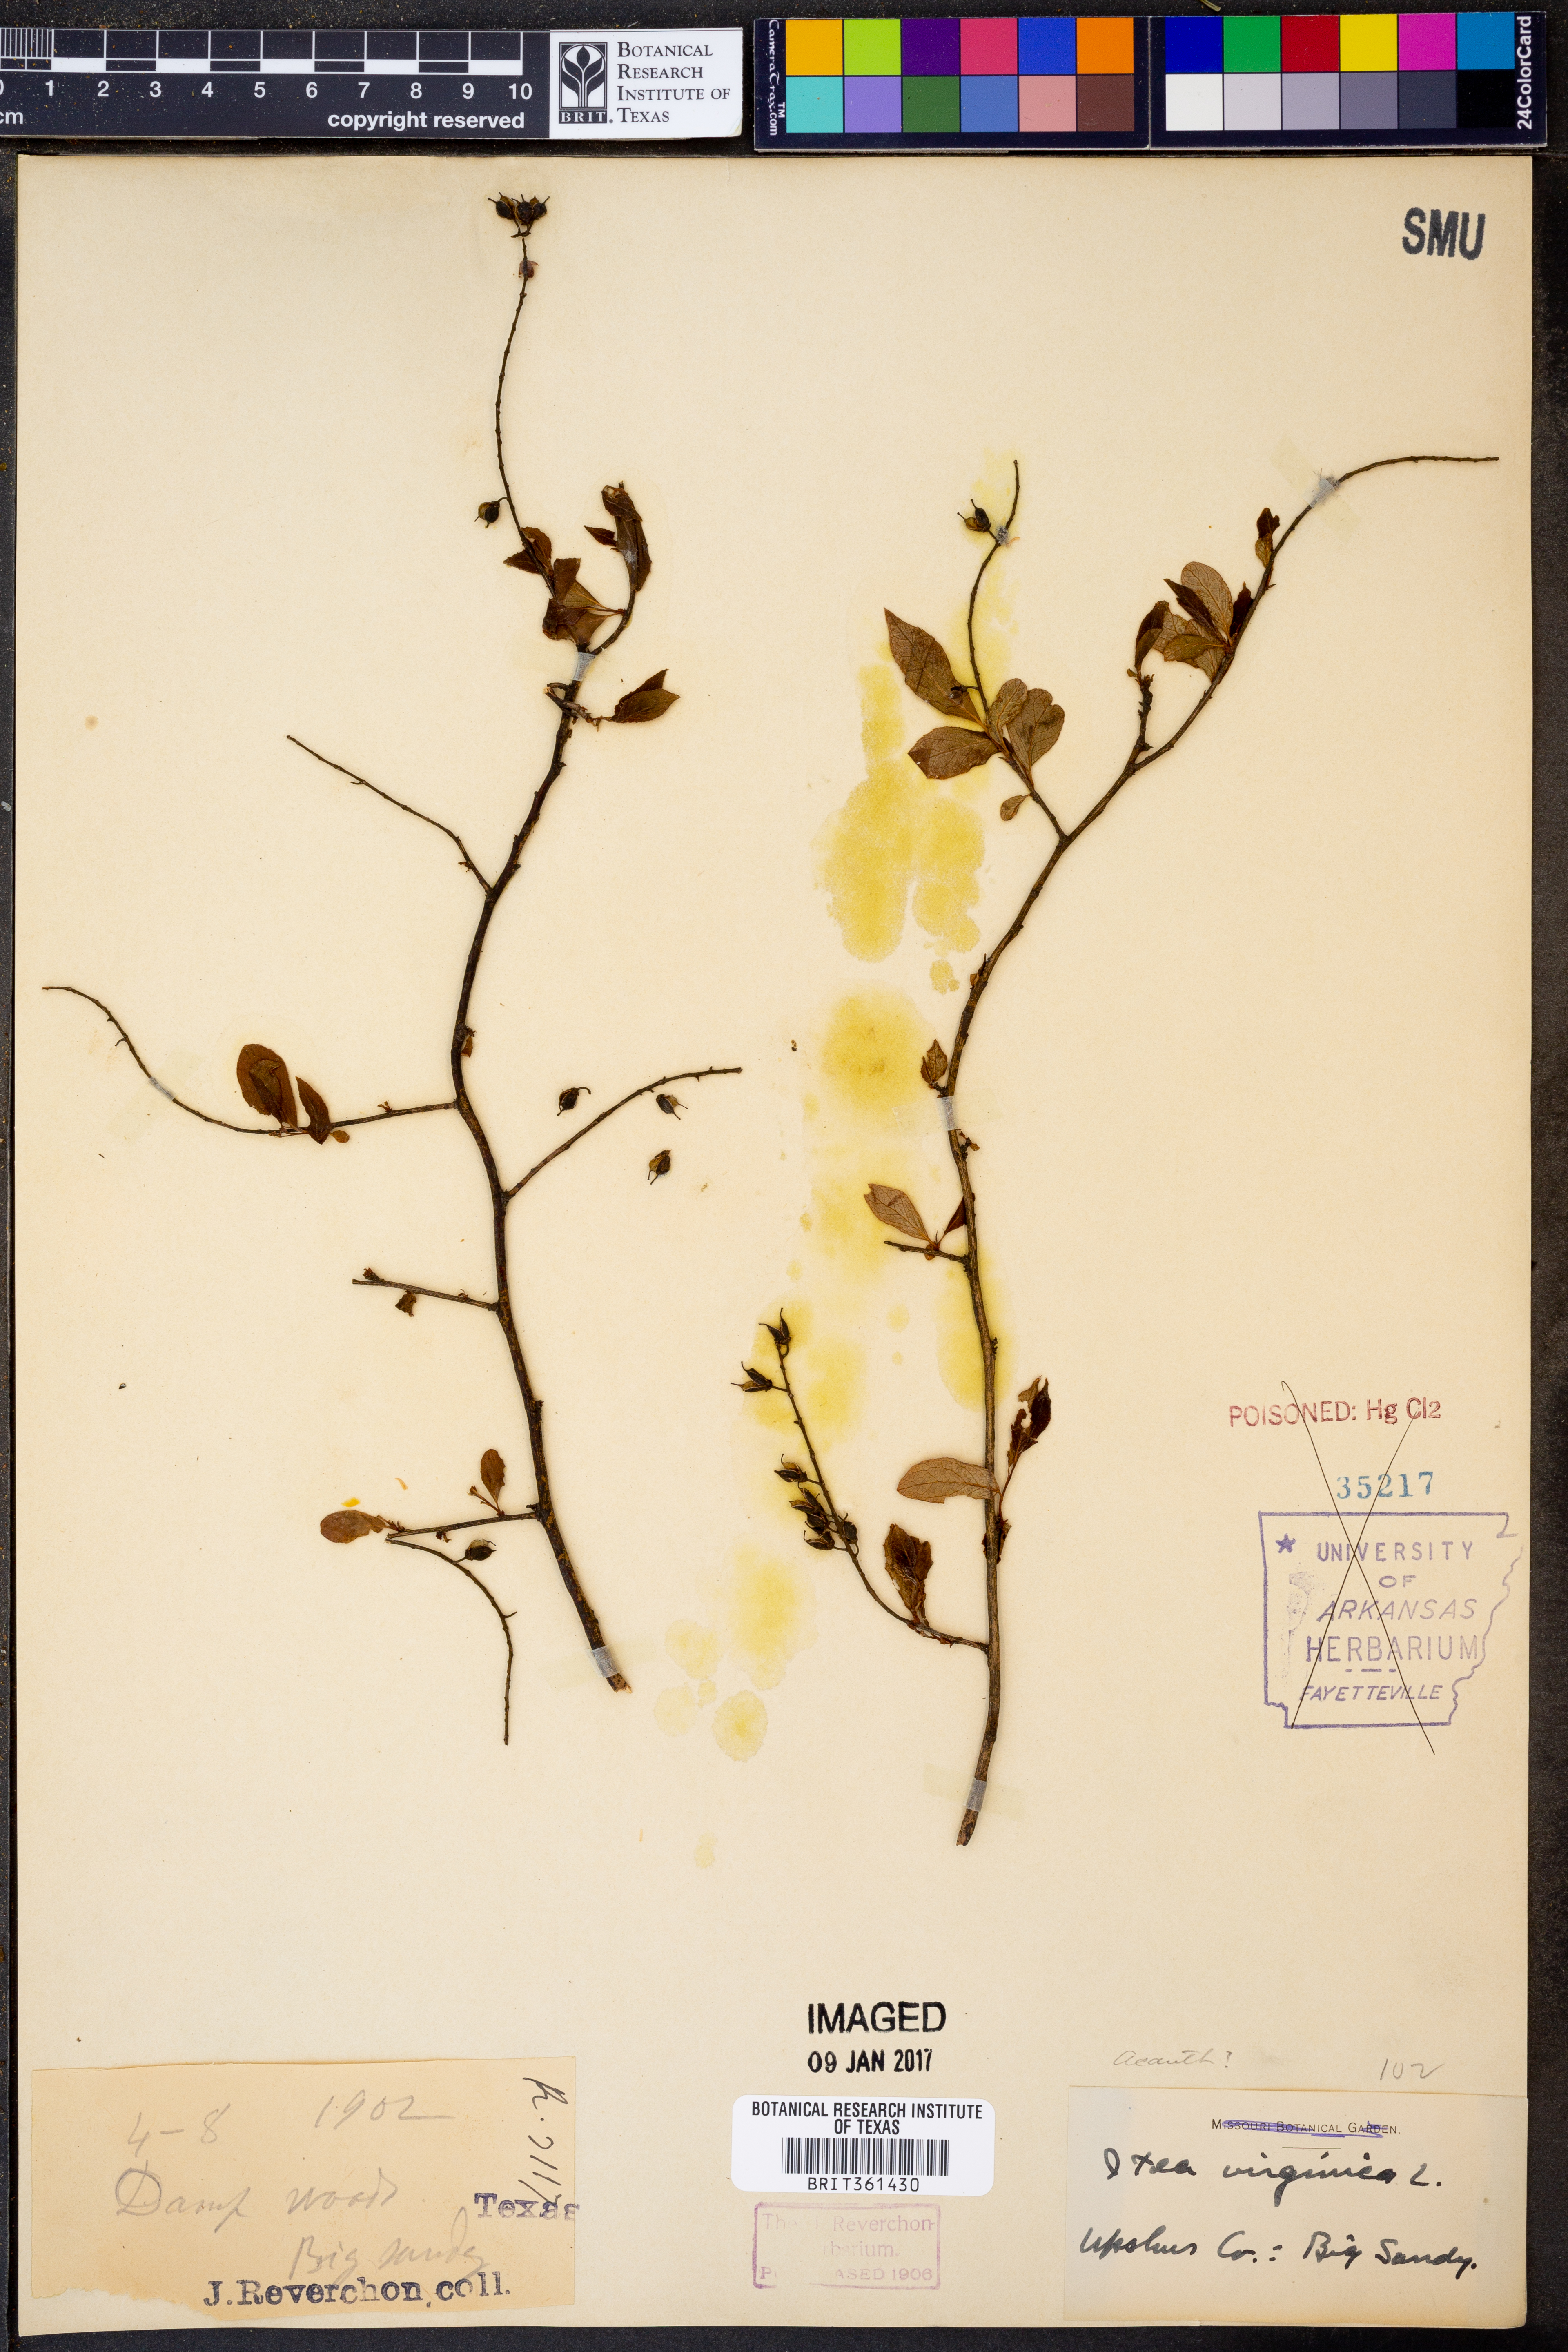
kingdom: Plantae
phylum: Tracheophyta
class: Magnoliopsida
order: Saxifragales
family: Iteaceae
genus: Itea
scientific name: Itea virginica
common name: Sweetspire
